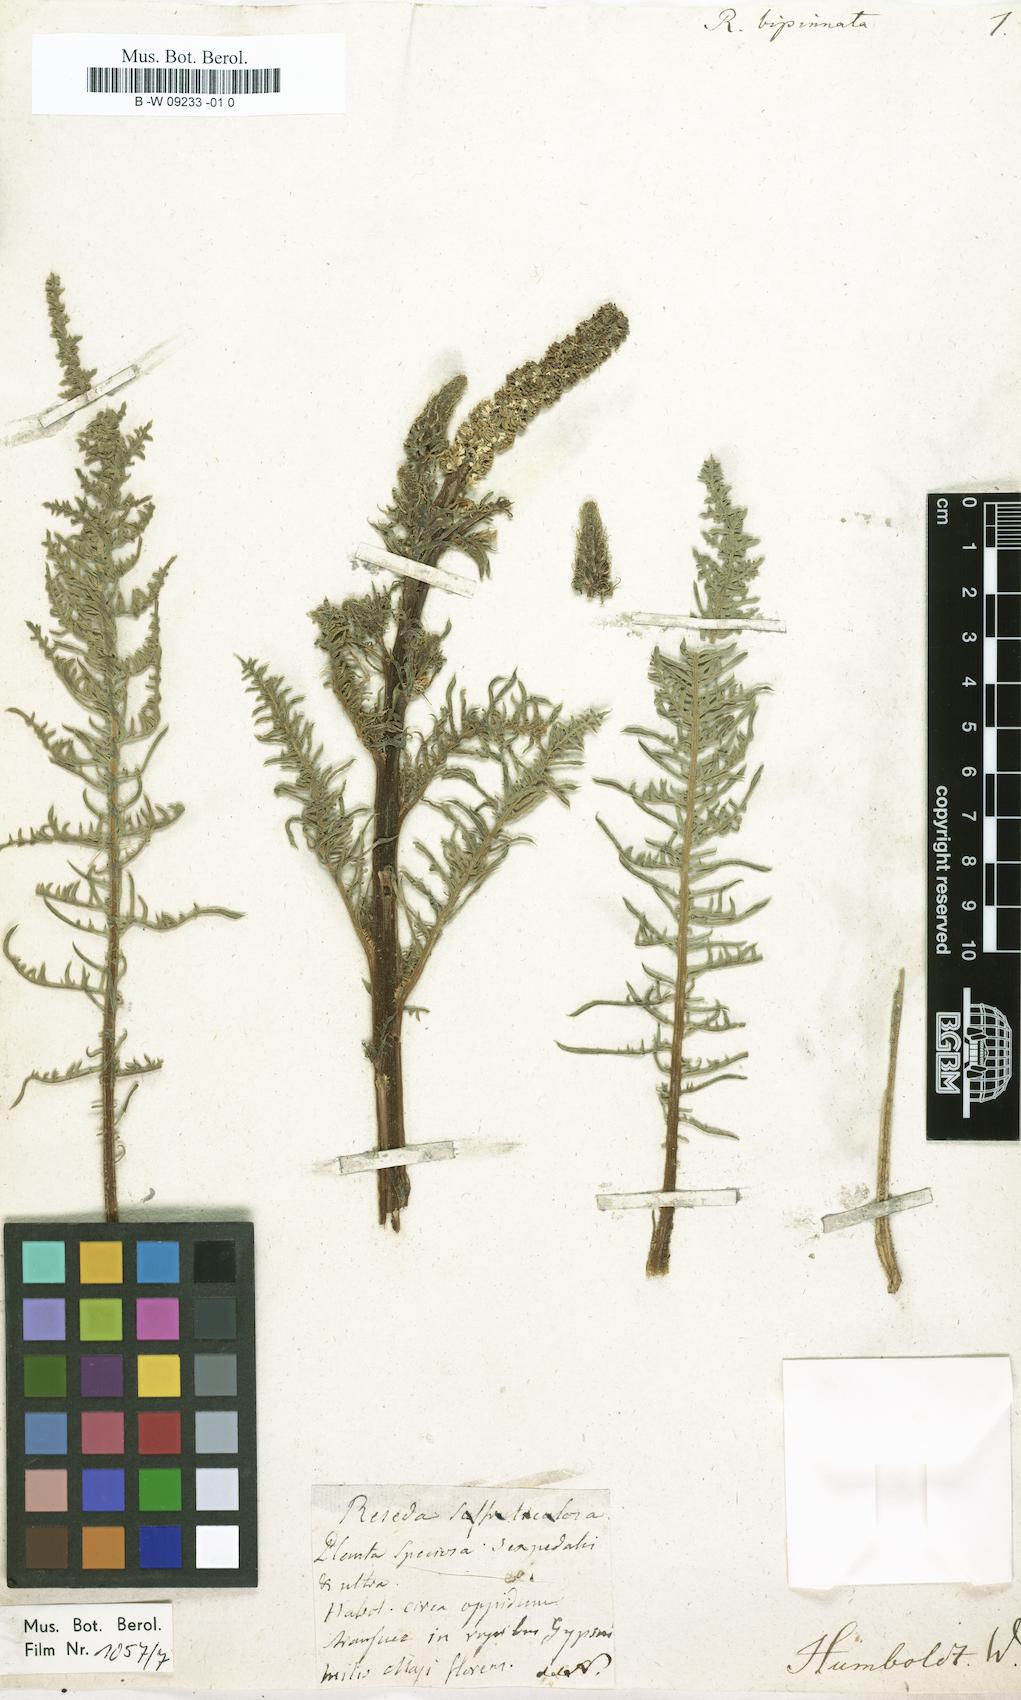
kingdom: Plantae
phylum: Tracheophyta
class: Magnoliopsida
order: Brassicales
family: Resedaceae
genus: Reseda
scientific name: Reseda
